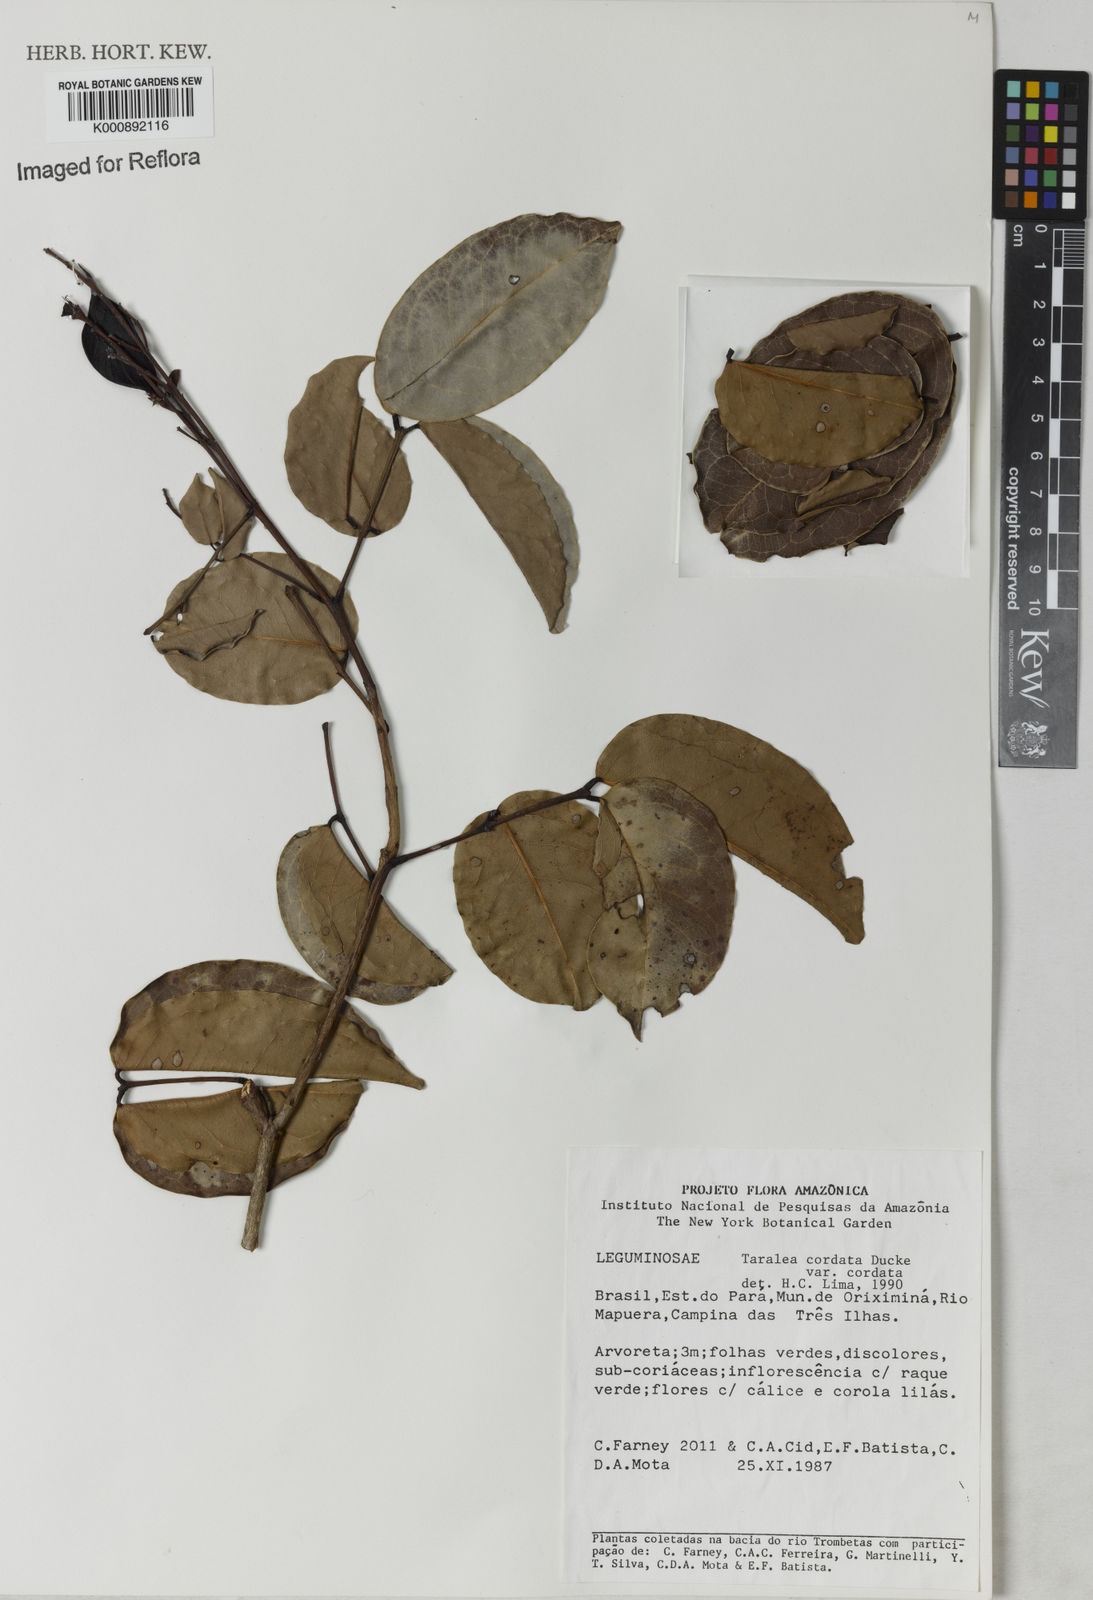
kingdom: Plantae
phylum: Tracheophyta
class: Magnoliopsida
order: Fabales
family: Fabaceae
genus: Taralea
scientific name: Taralea cordata
